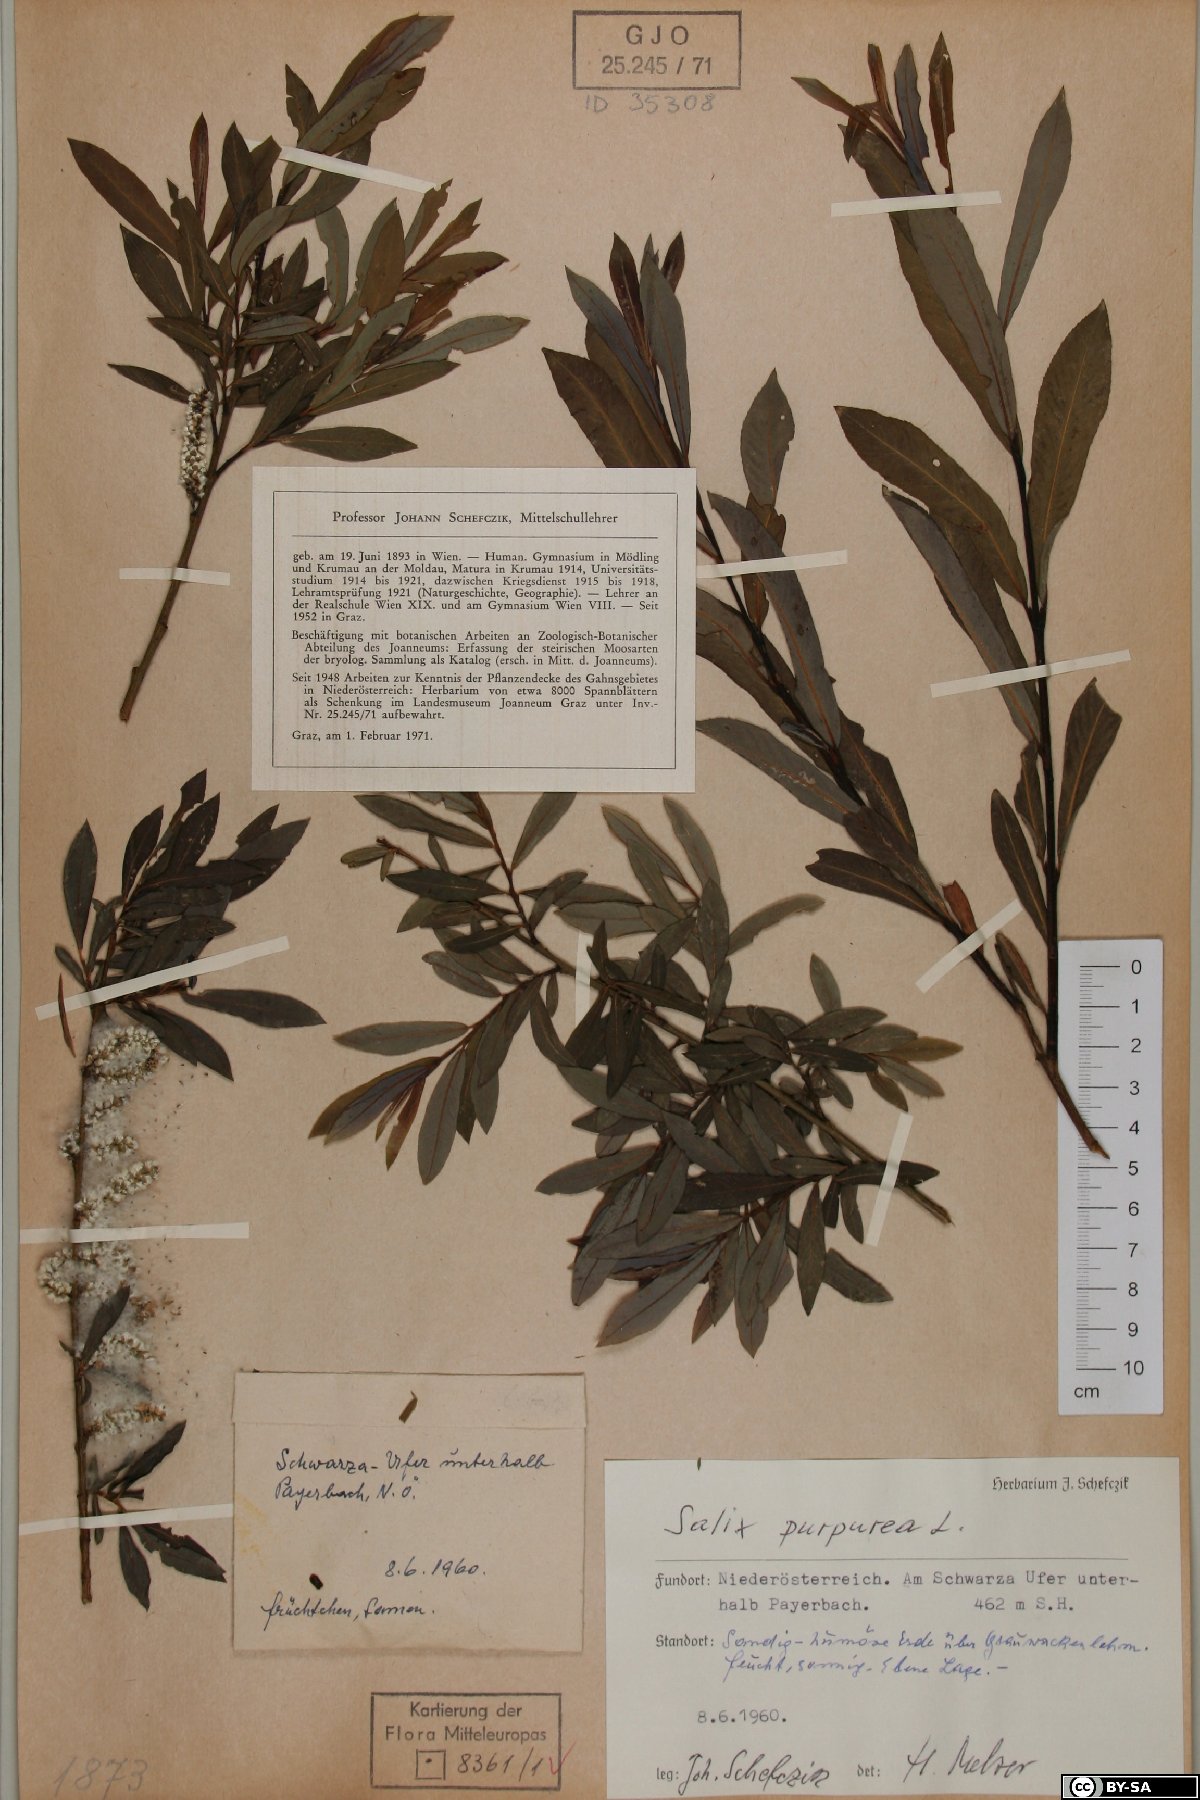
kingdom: Plantae
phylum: Tracheophyta
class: Magnoliopsida
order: Malpighiales
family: Salicaceae
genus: Salix
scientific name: Salix purpurea
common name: Purple willow
